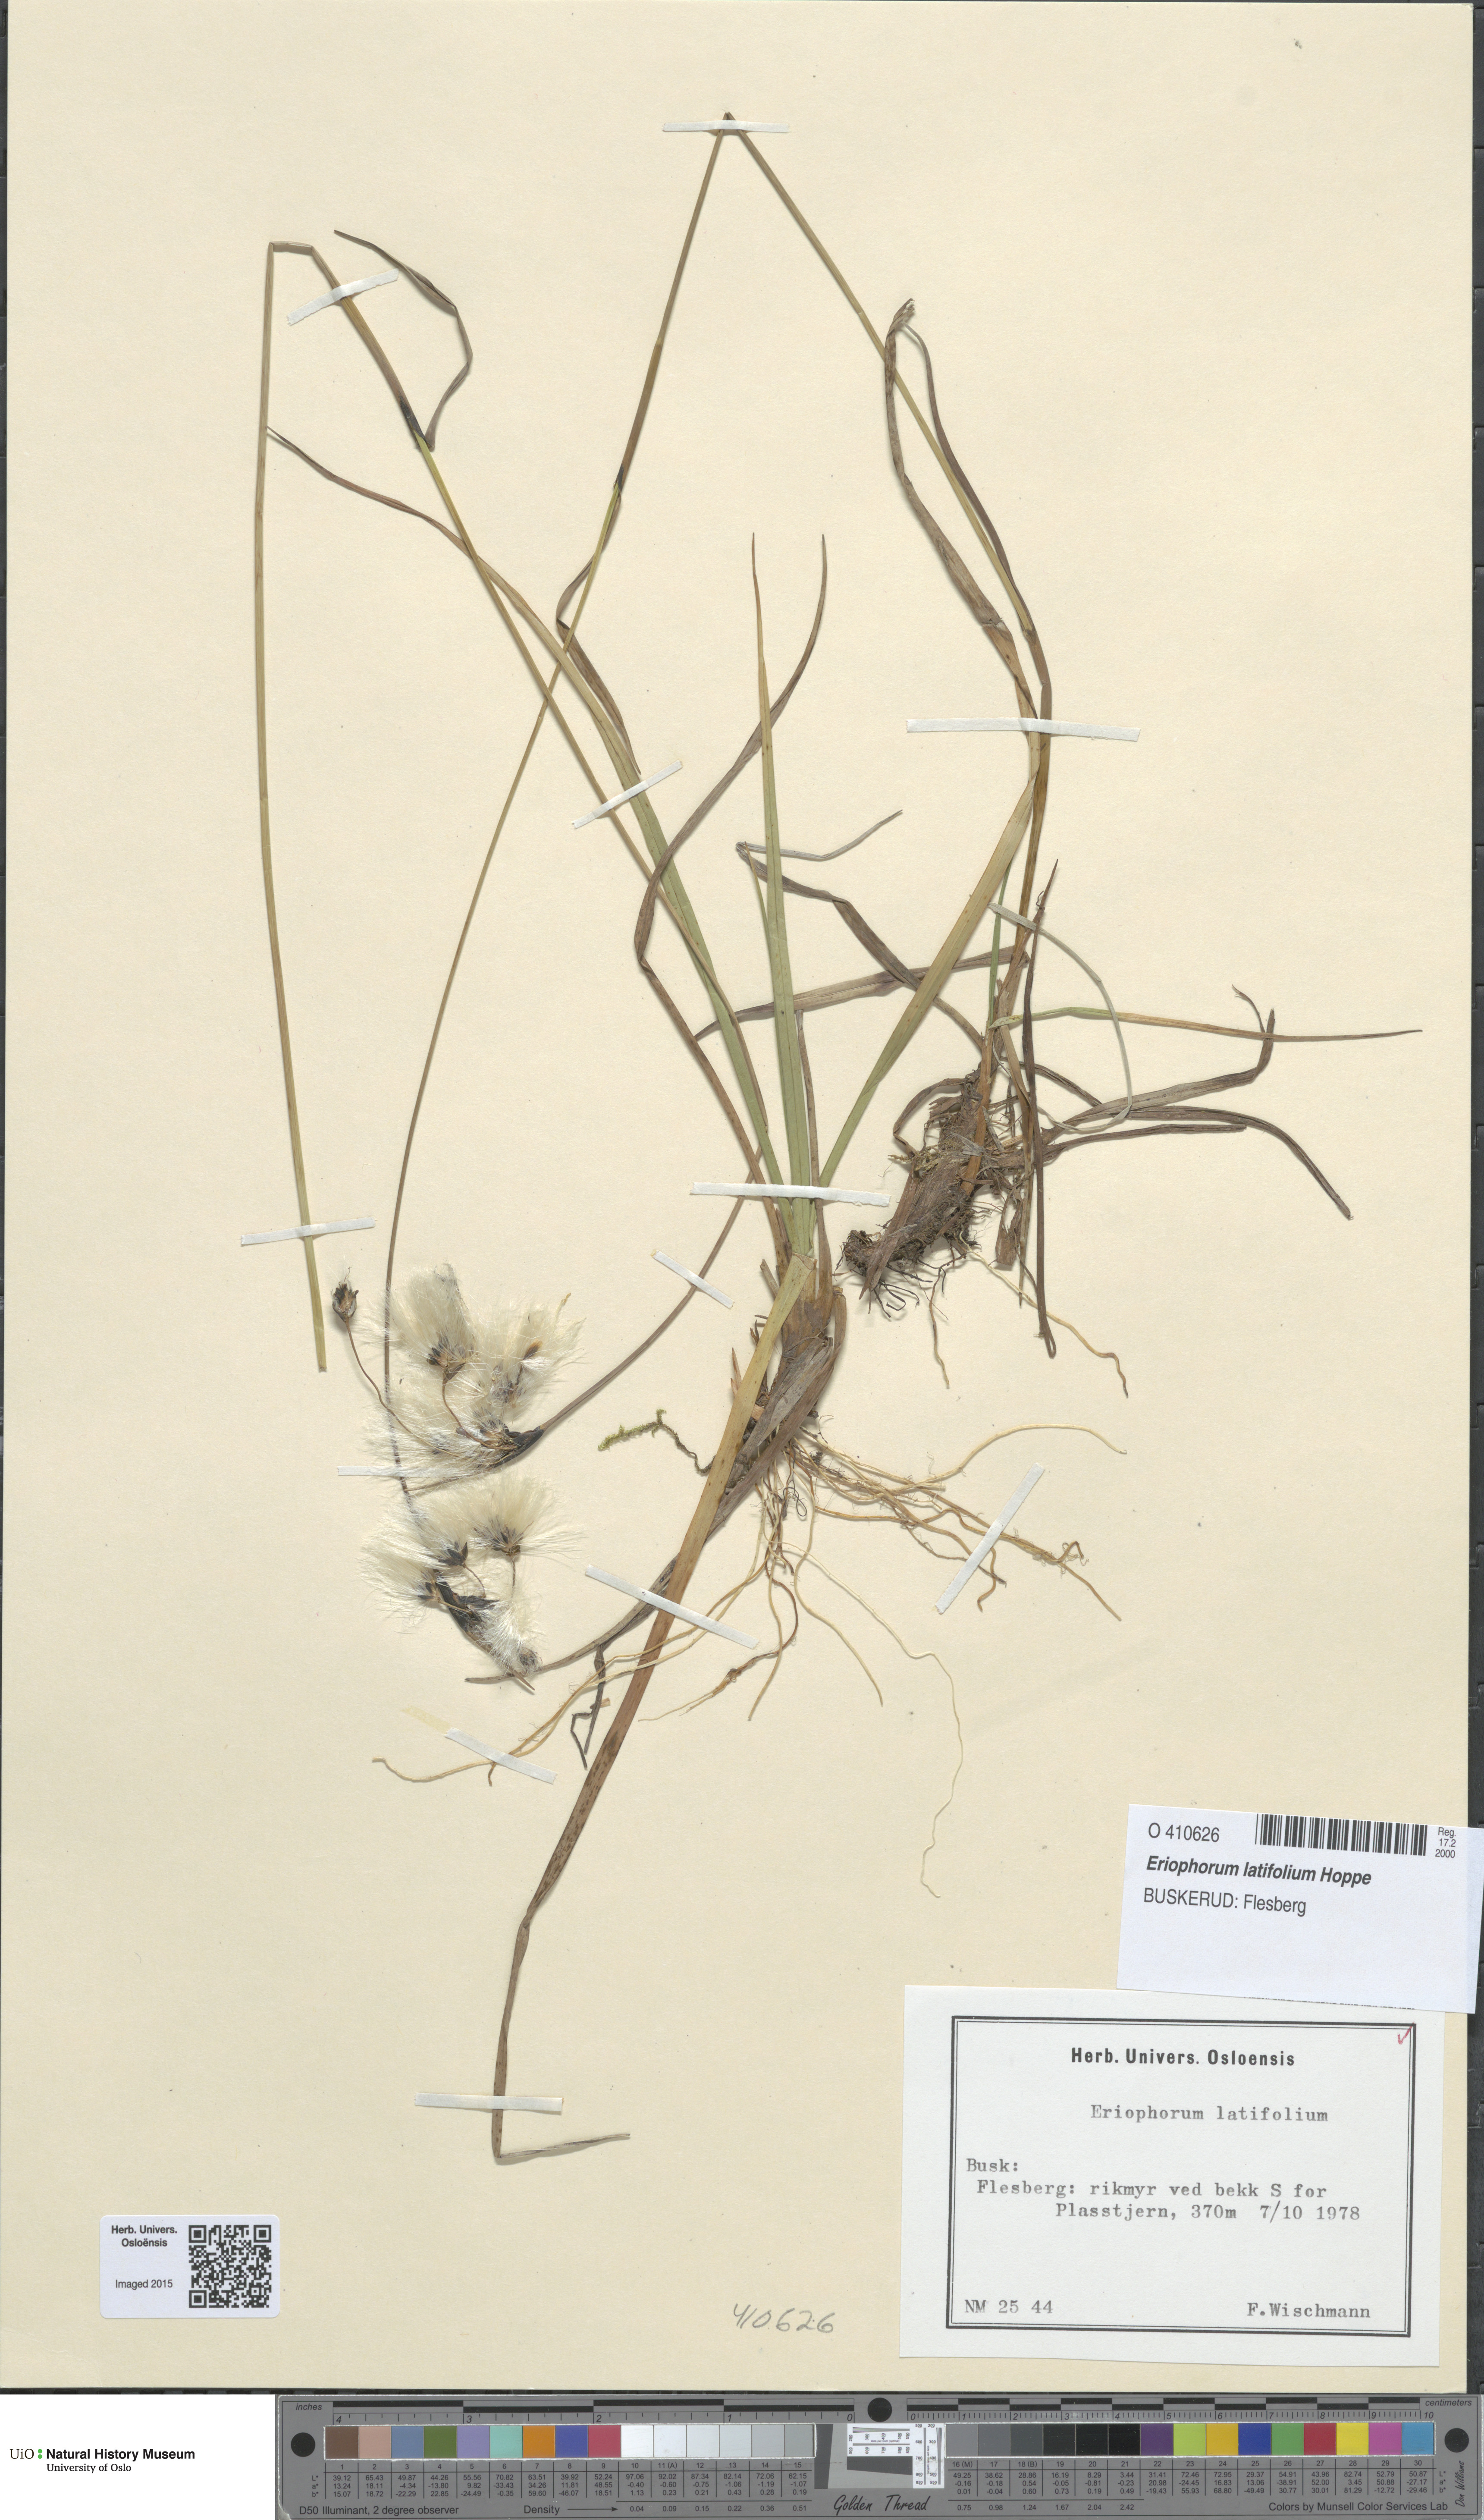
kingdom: Plantae
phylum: Tracheophyta
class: Liliopsida
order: Poales
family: Cyperaceae
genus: Eriophorum
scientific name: Eriophorum latifolium
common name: Broad-leaved cottongrass
